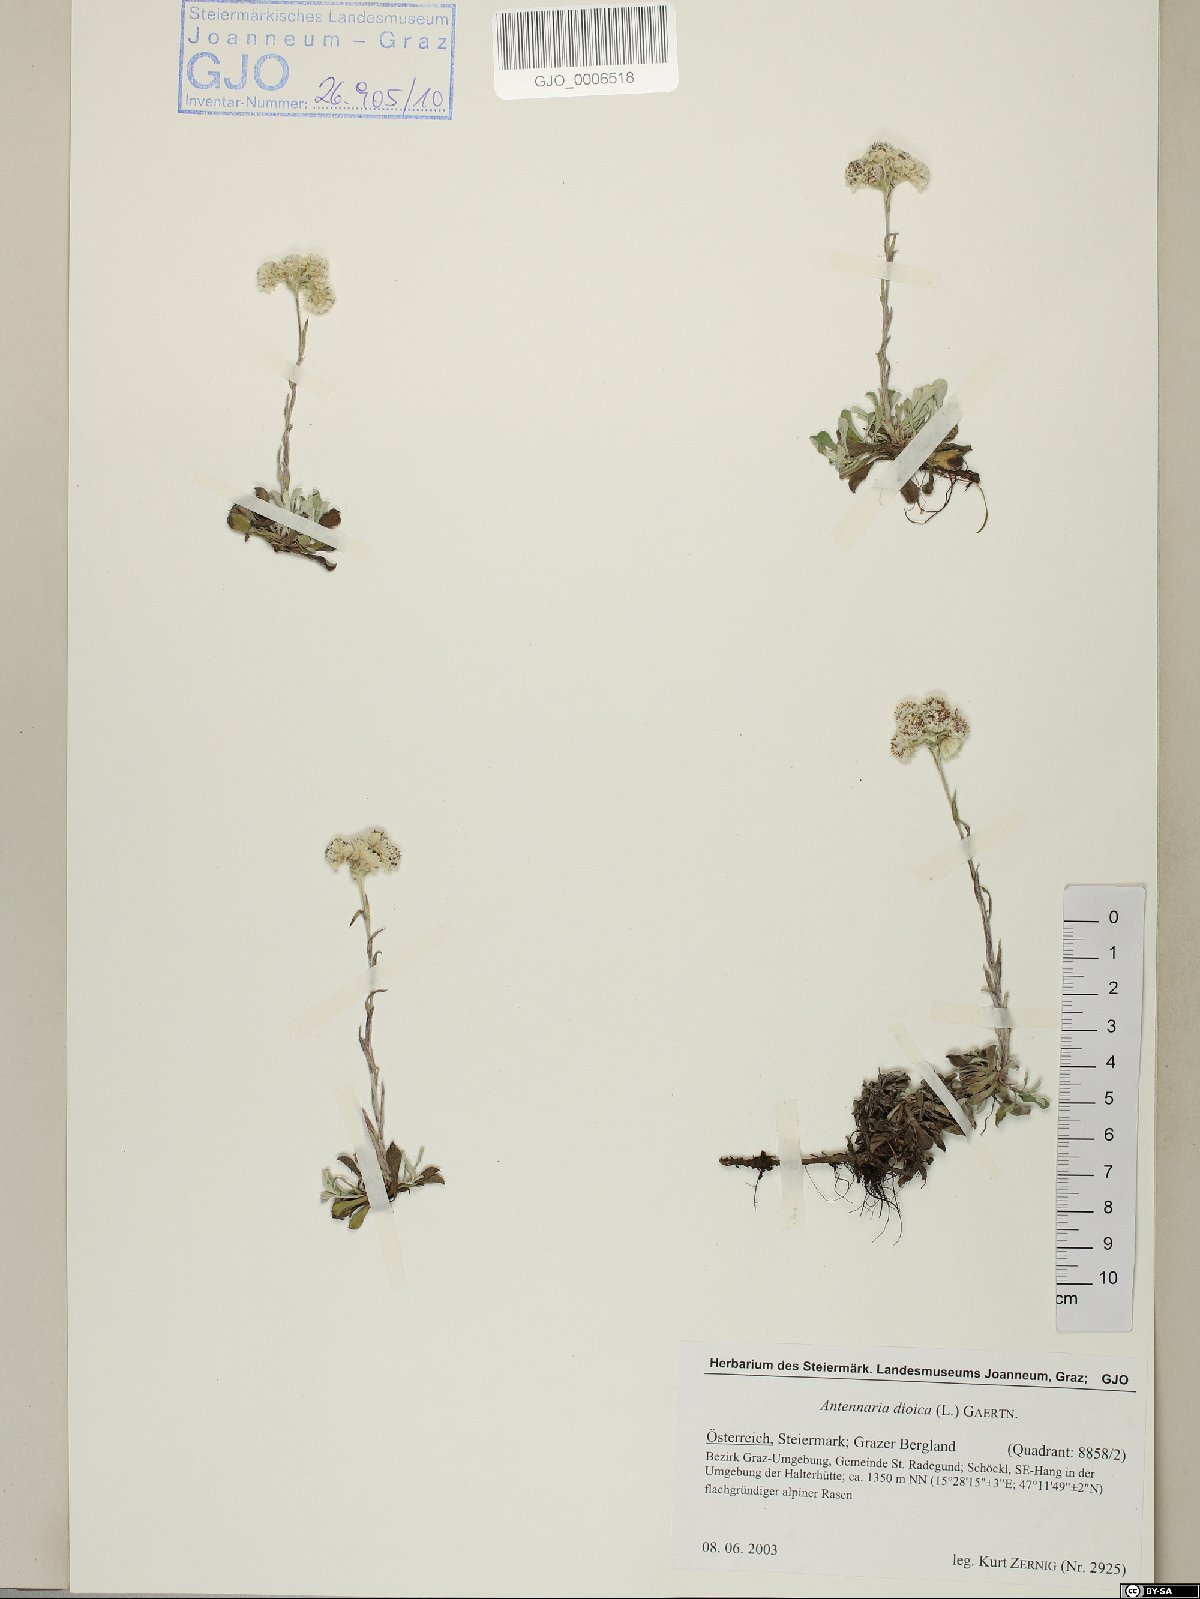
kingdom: Plantae
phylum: Tracheophyta
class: Magnoliopsida
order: Asterales
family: Asteraceae
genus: Antennaria
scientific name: Antennaria dioica
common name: Mountain everlasting
